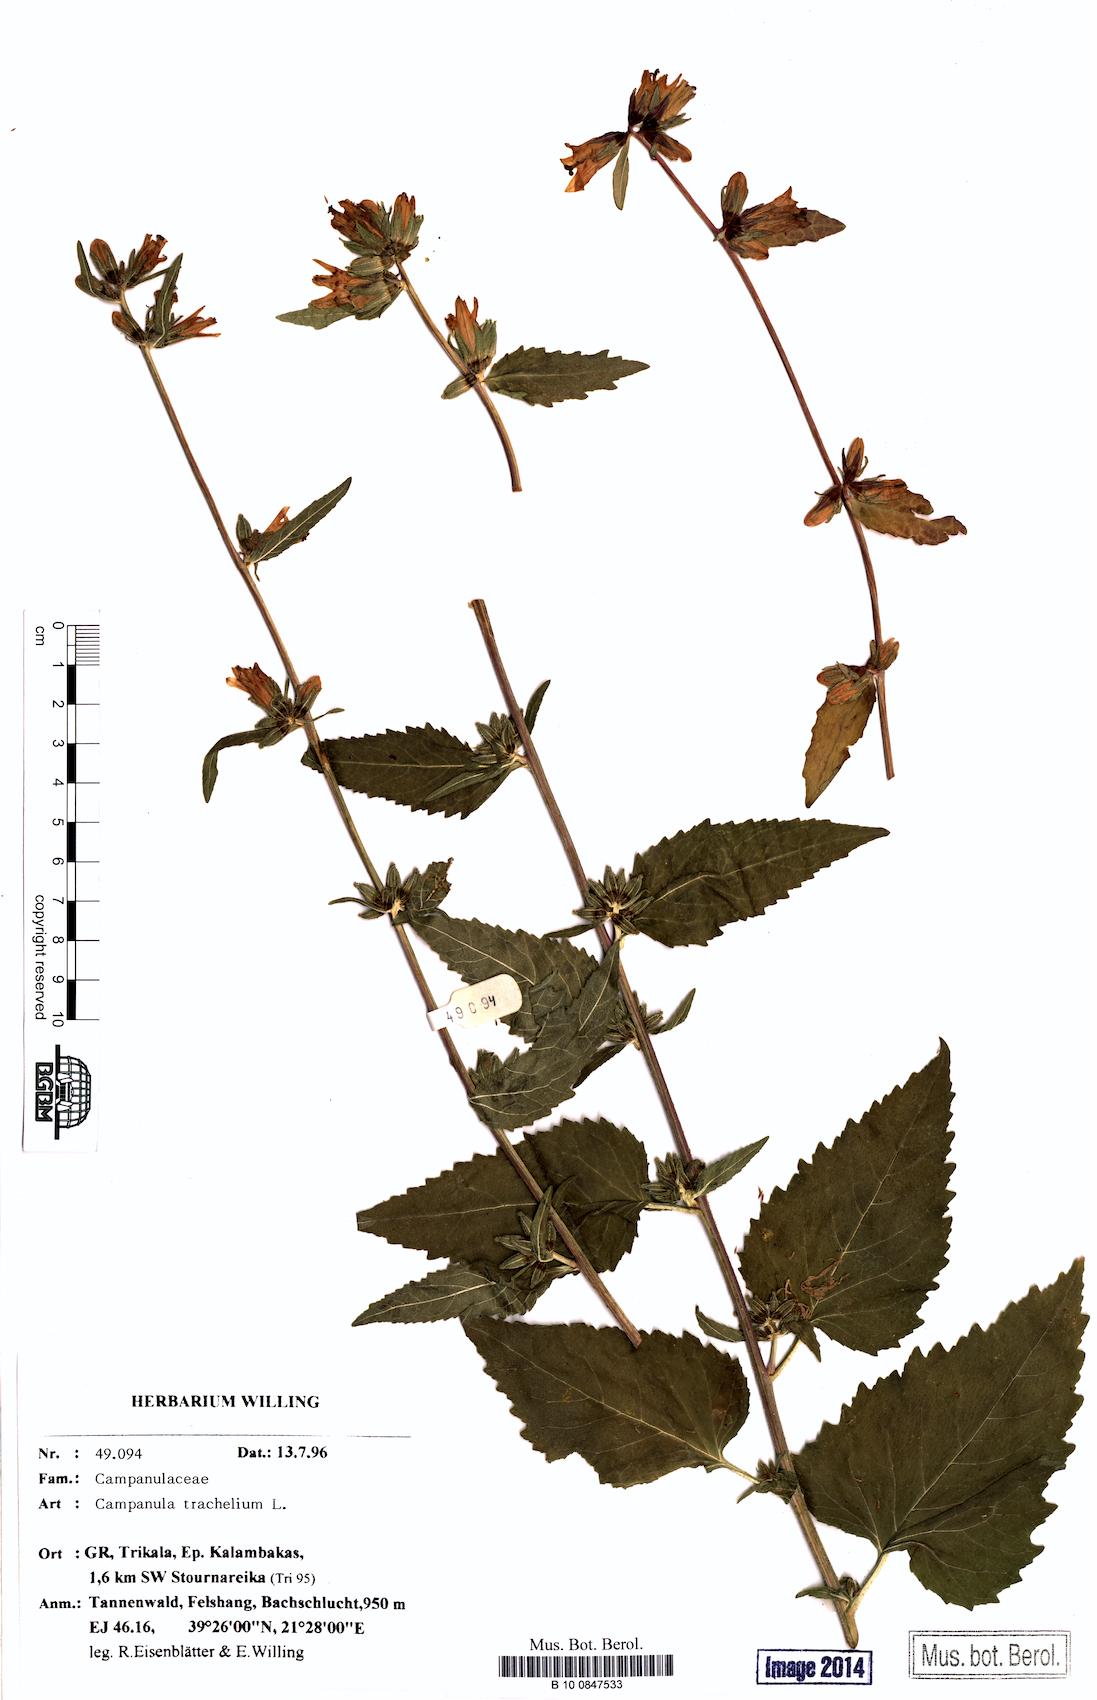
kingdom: Plantae
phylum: Tracheophyta
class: Magnoliopsida
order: Asterales
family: Campanulaceae
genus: Campanula
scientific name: Campanula trachelium
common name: Nettle-leaved bellflower
